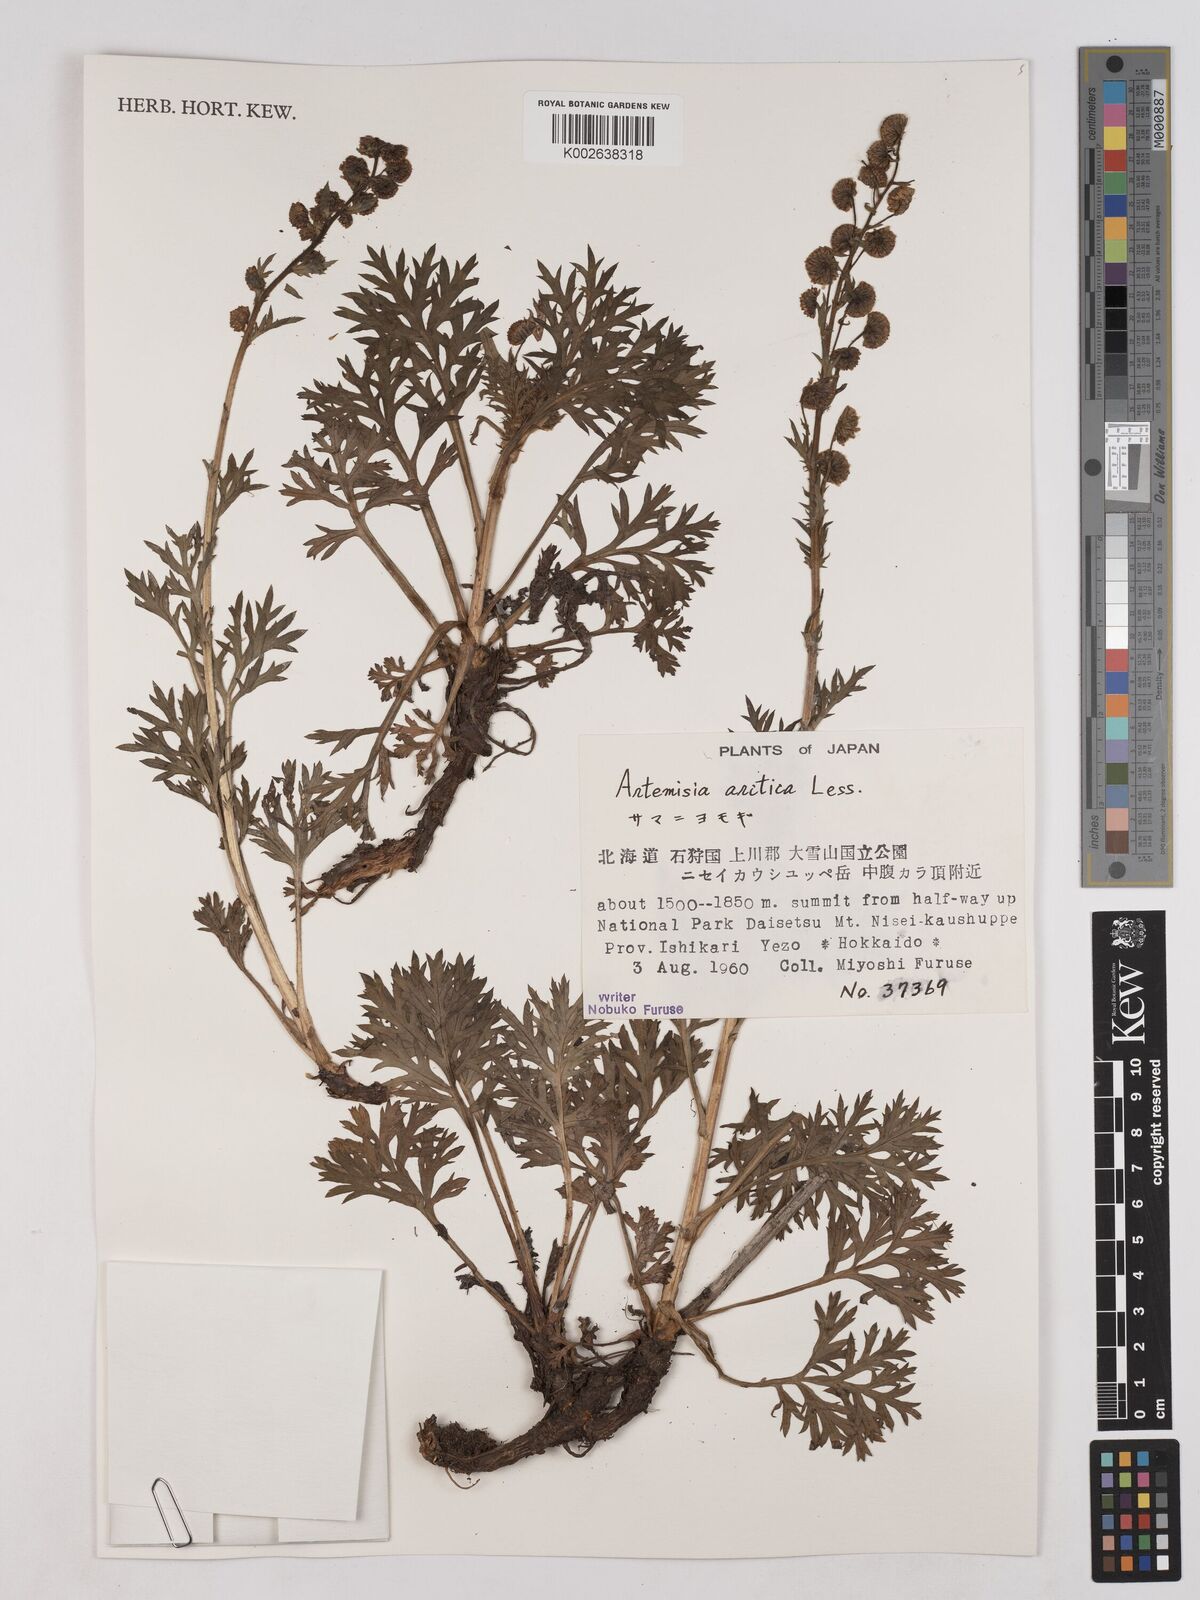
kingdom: Plantae
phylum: Tracheophyta
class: Magnoliopsida
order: Asterales
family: Asteraceae
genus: Artemisia
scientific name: Artemisia norvegica
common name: Norwegian mugwort
